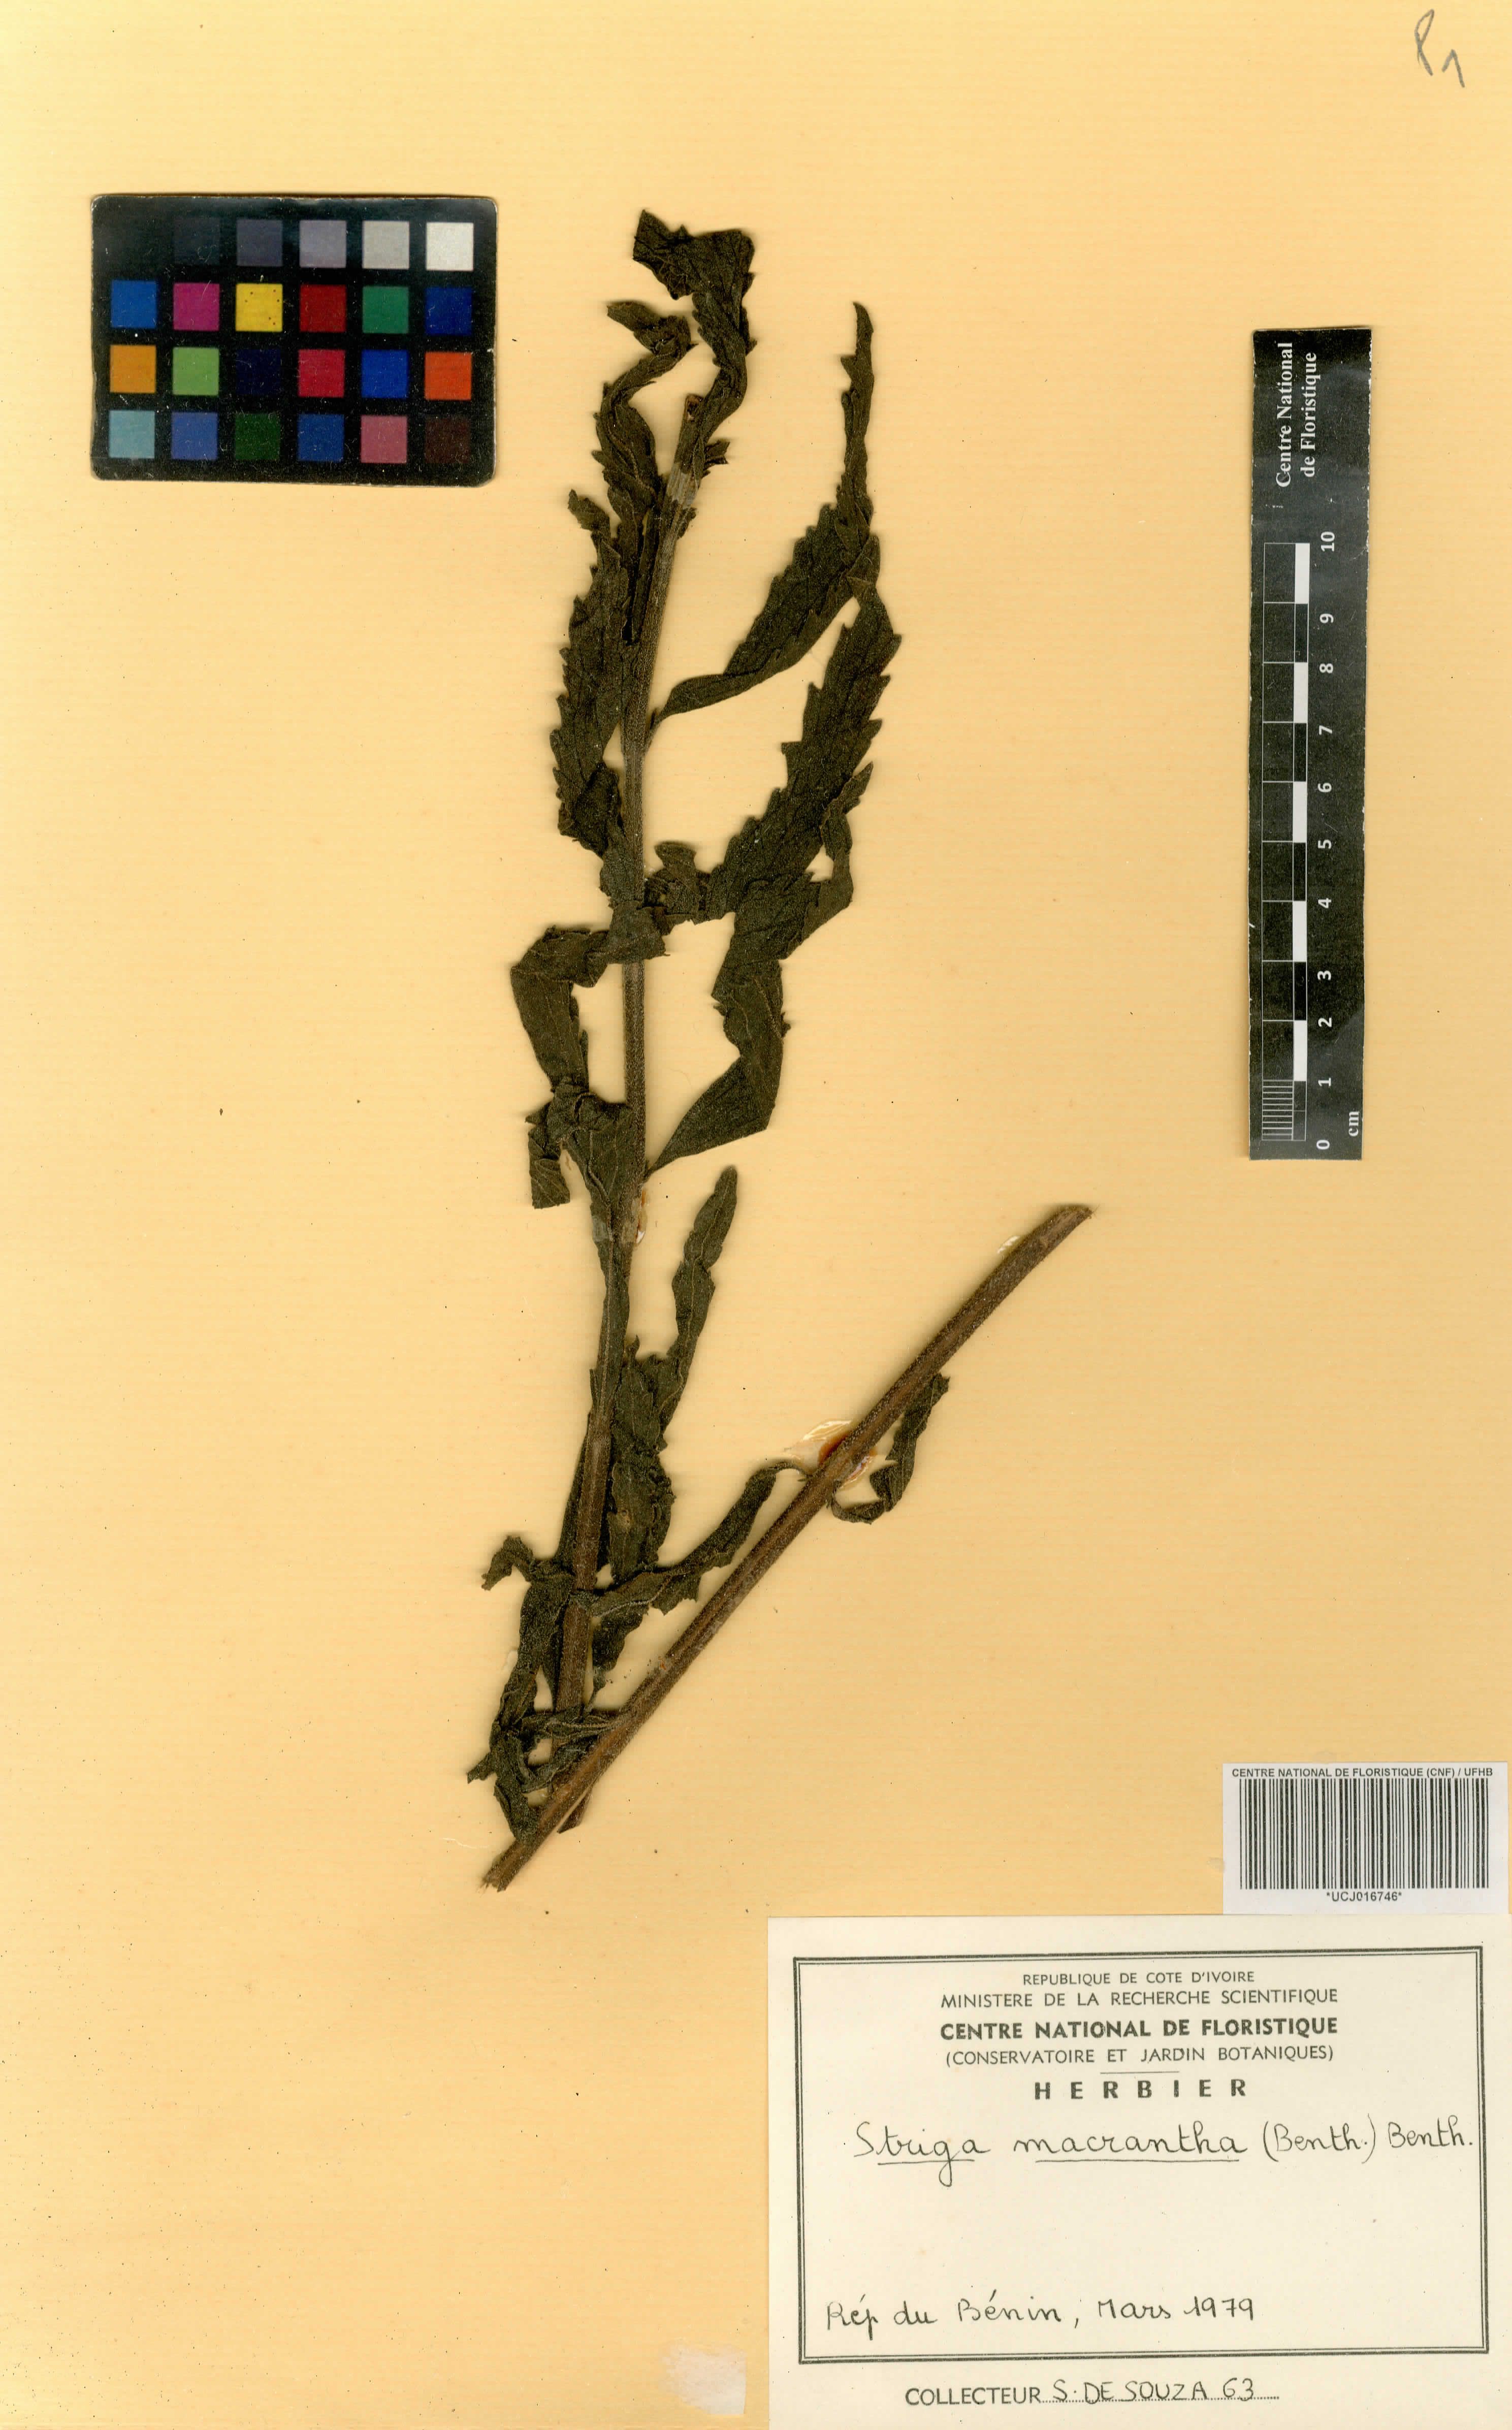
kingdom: Plantae
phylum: Tracheophyta
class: Magnoliopsida
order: Lamiales
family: Orobanchaceae
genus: Striga
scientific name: Striga macrantha
